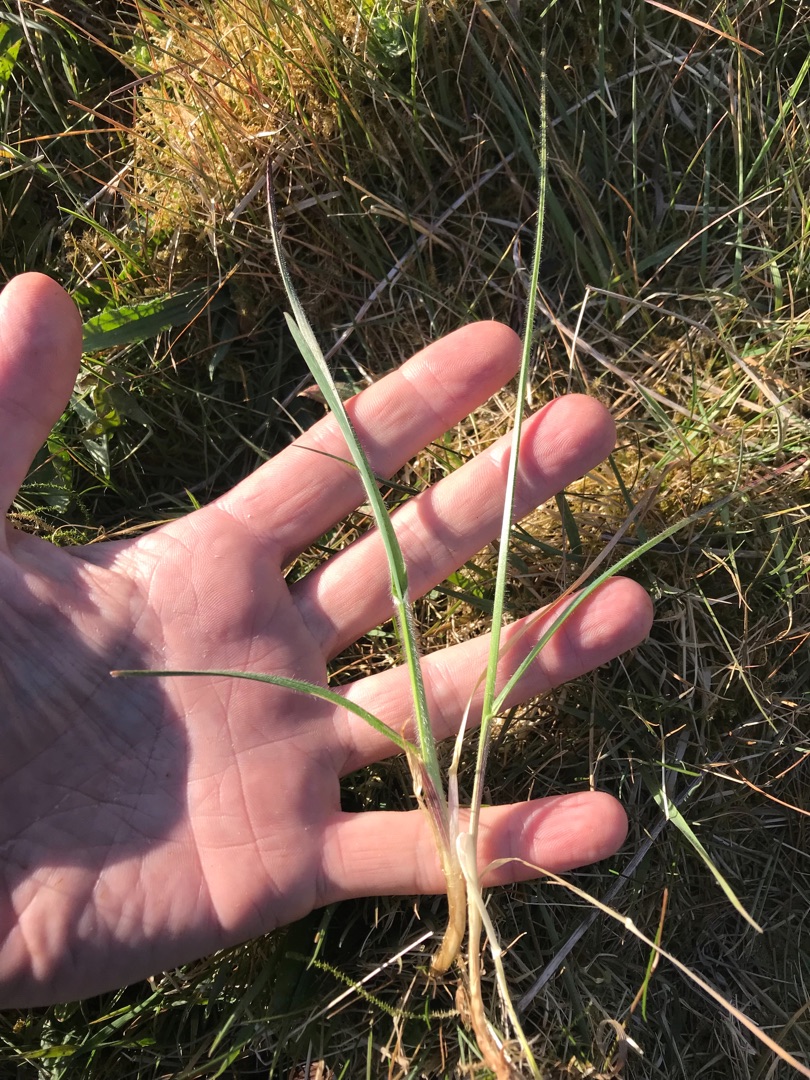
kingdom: Plantae
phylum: Tracheophyta
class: Liliopsida
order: Poales
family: Poaceae
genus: Avenula
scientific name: Avenula pubescens
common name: Dunet havre
